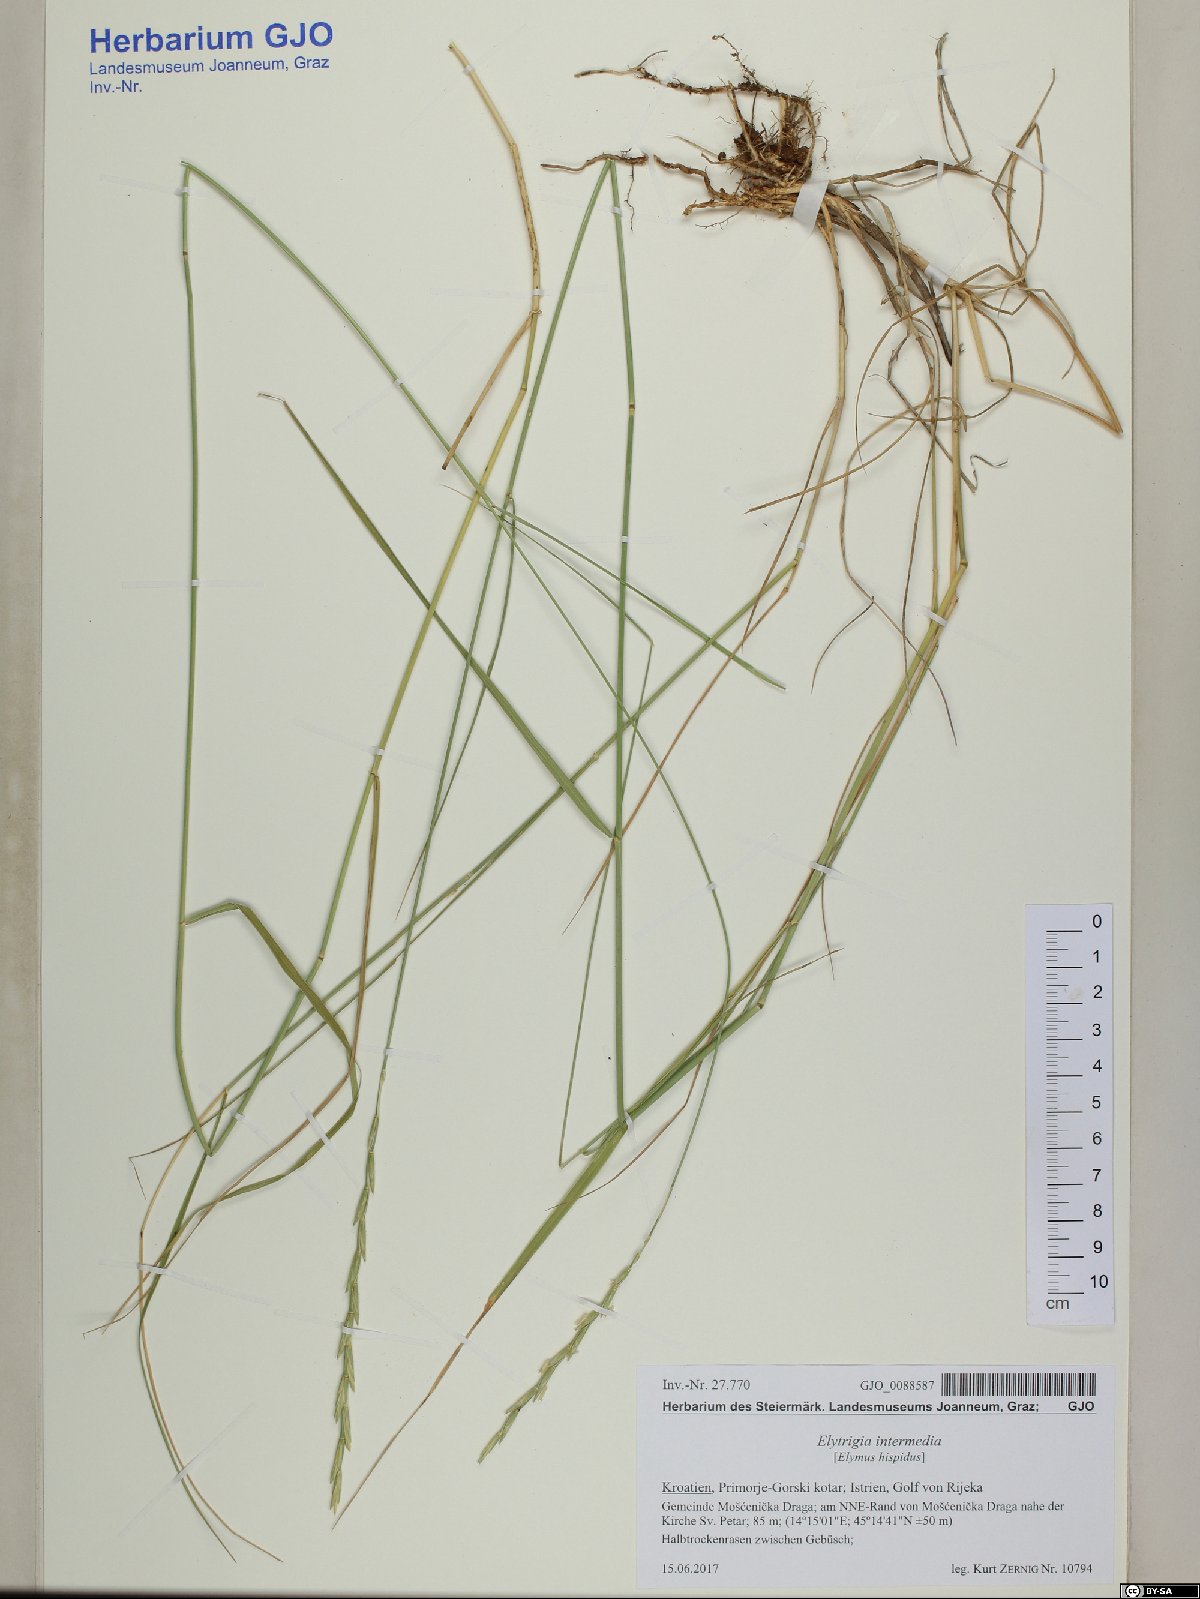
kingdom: Plantae
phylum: Tracheophyta
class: Liliopsida
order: Poales
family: Poaceae
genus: Thinopyrum
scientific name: Thinopyrum intermedium
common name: Intermediate wheatgrass
